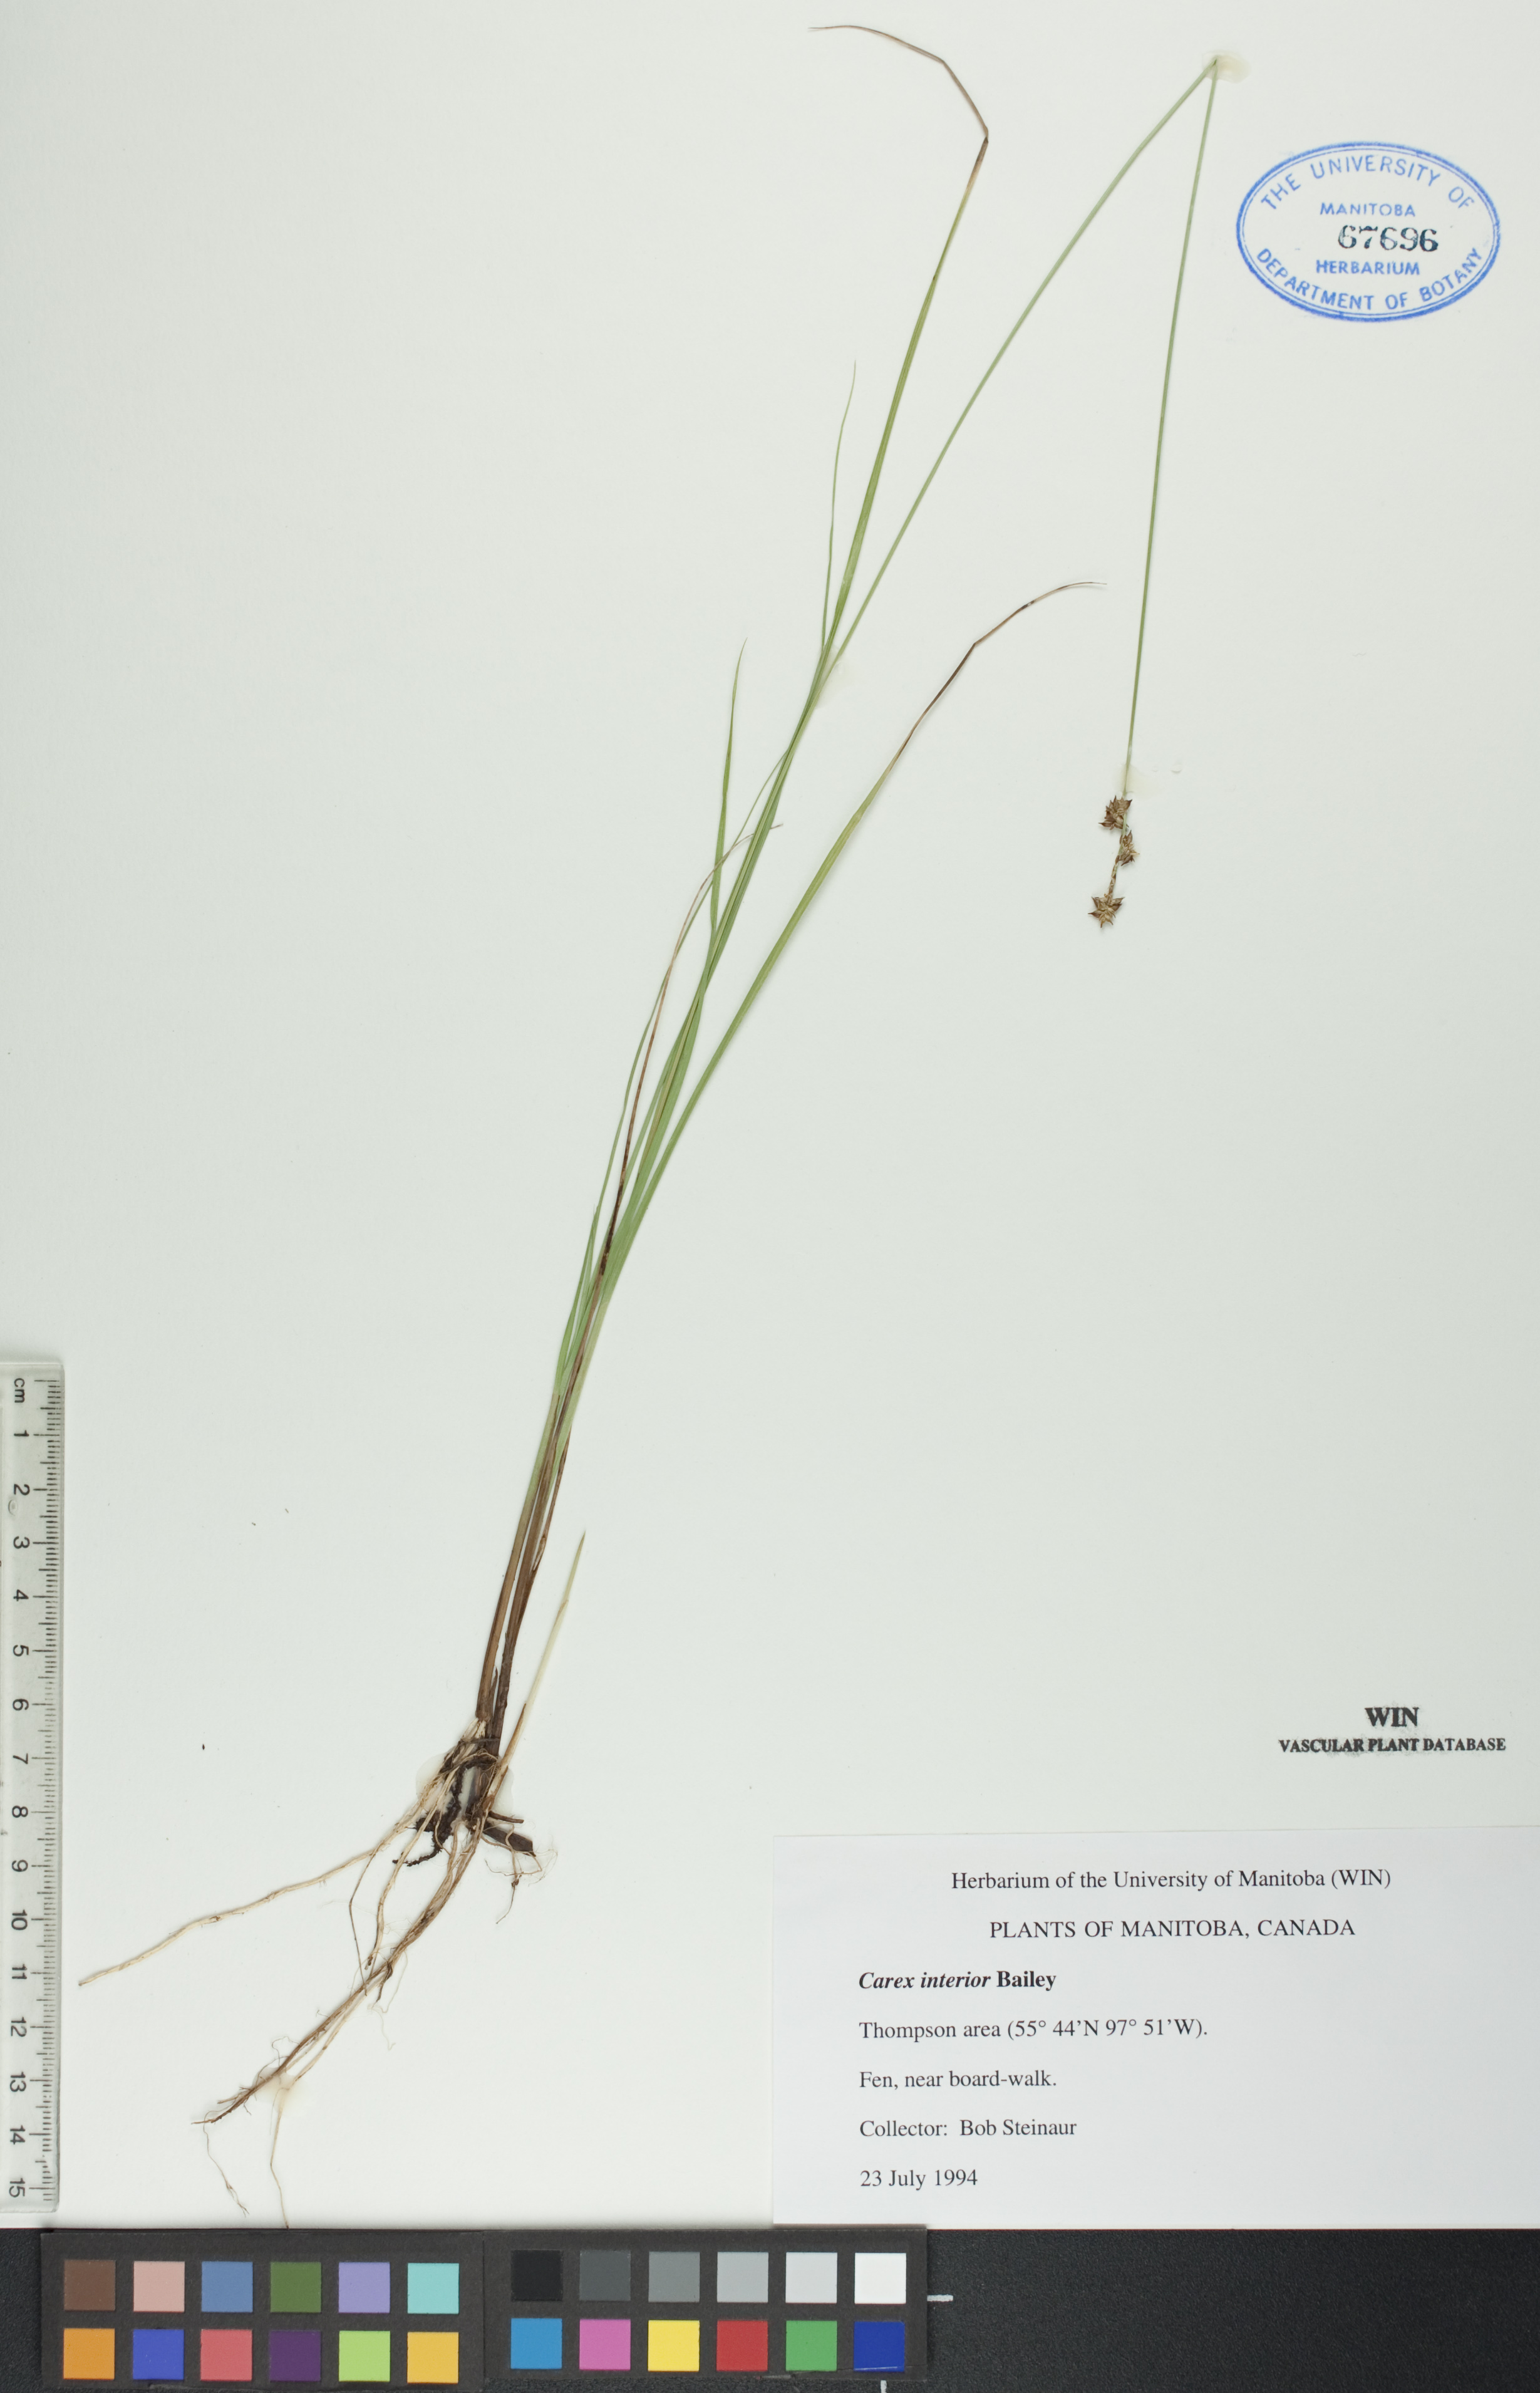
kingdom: Plantae
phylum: Tracheophyta
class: Liliopsida
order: Poales
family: Cyperaceae
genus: Carex
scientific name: Carex interior
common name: Inland sedge
